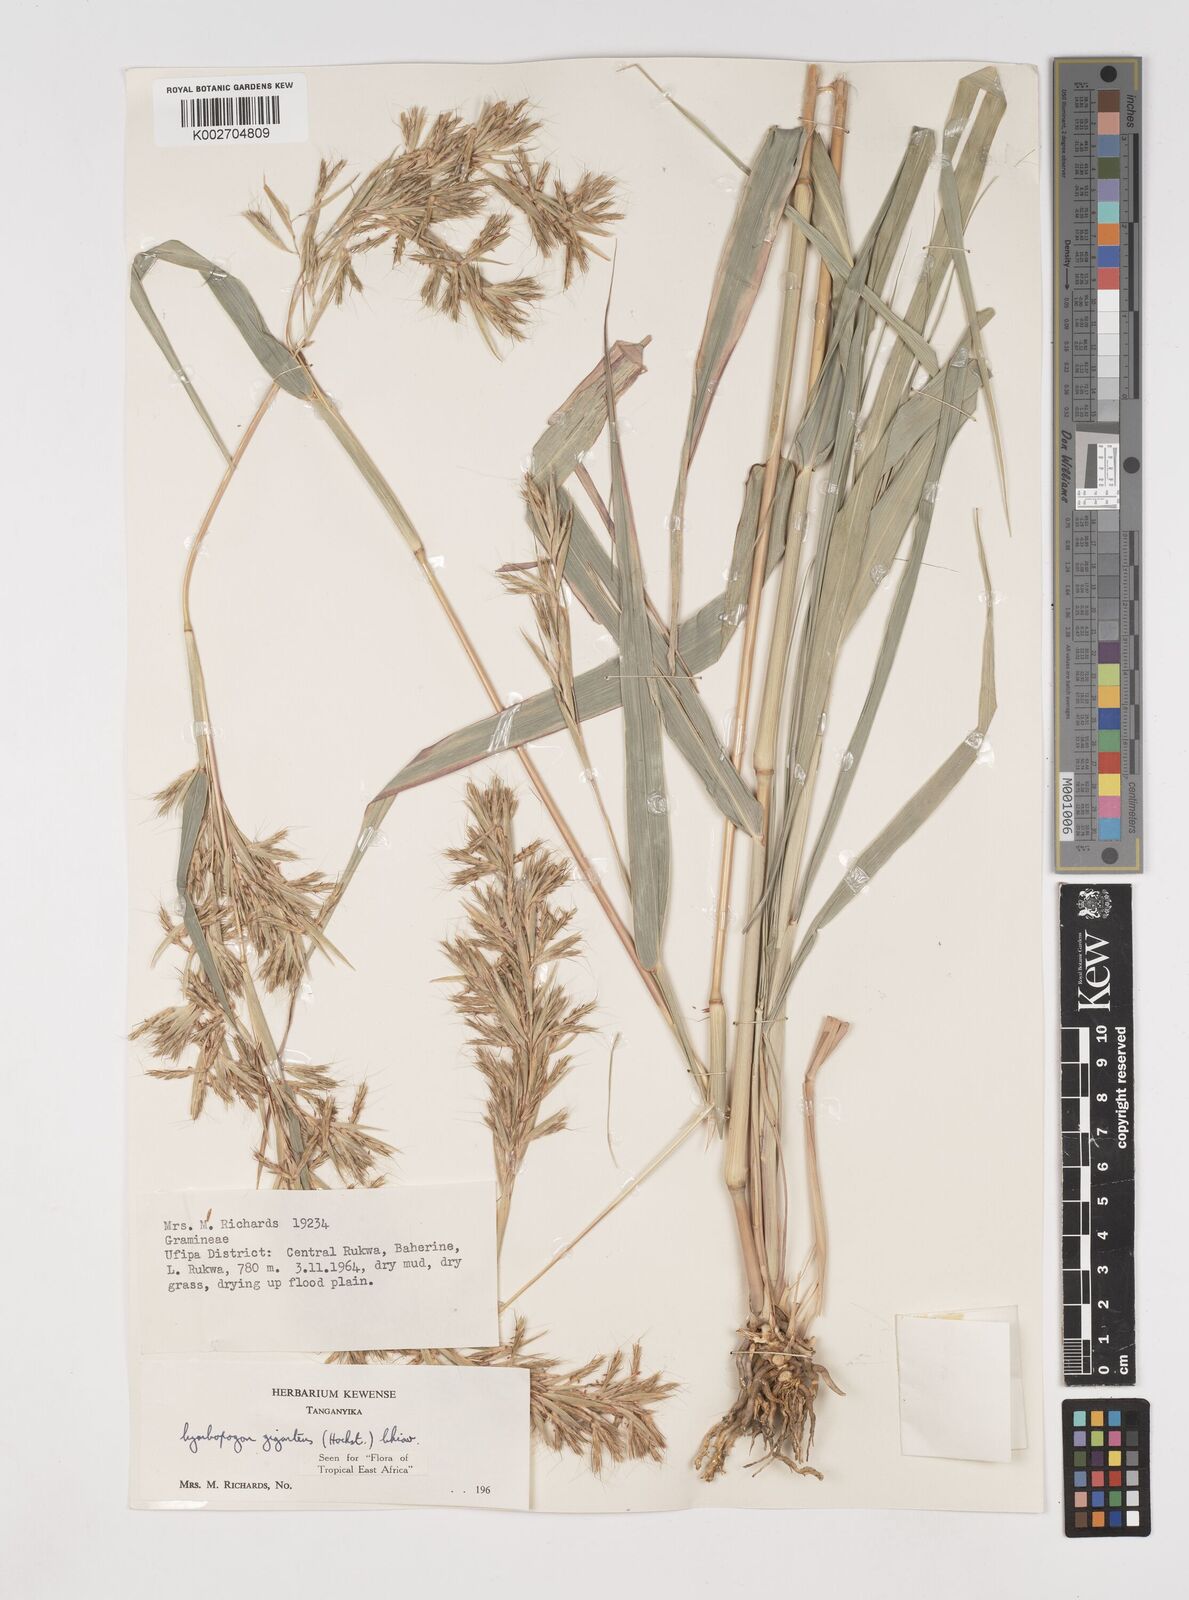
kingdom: Plantae
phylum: Tracheophyta
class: Liliopsida
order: Poales
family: Poaceae
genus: Cymbopogon
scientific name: Cymbopogon giganteus
